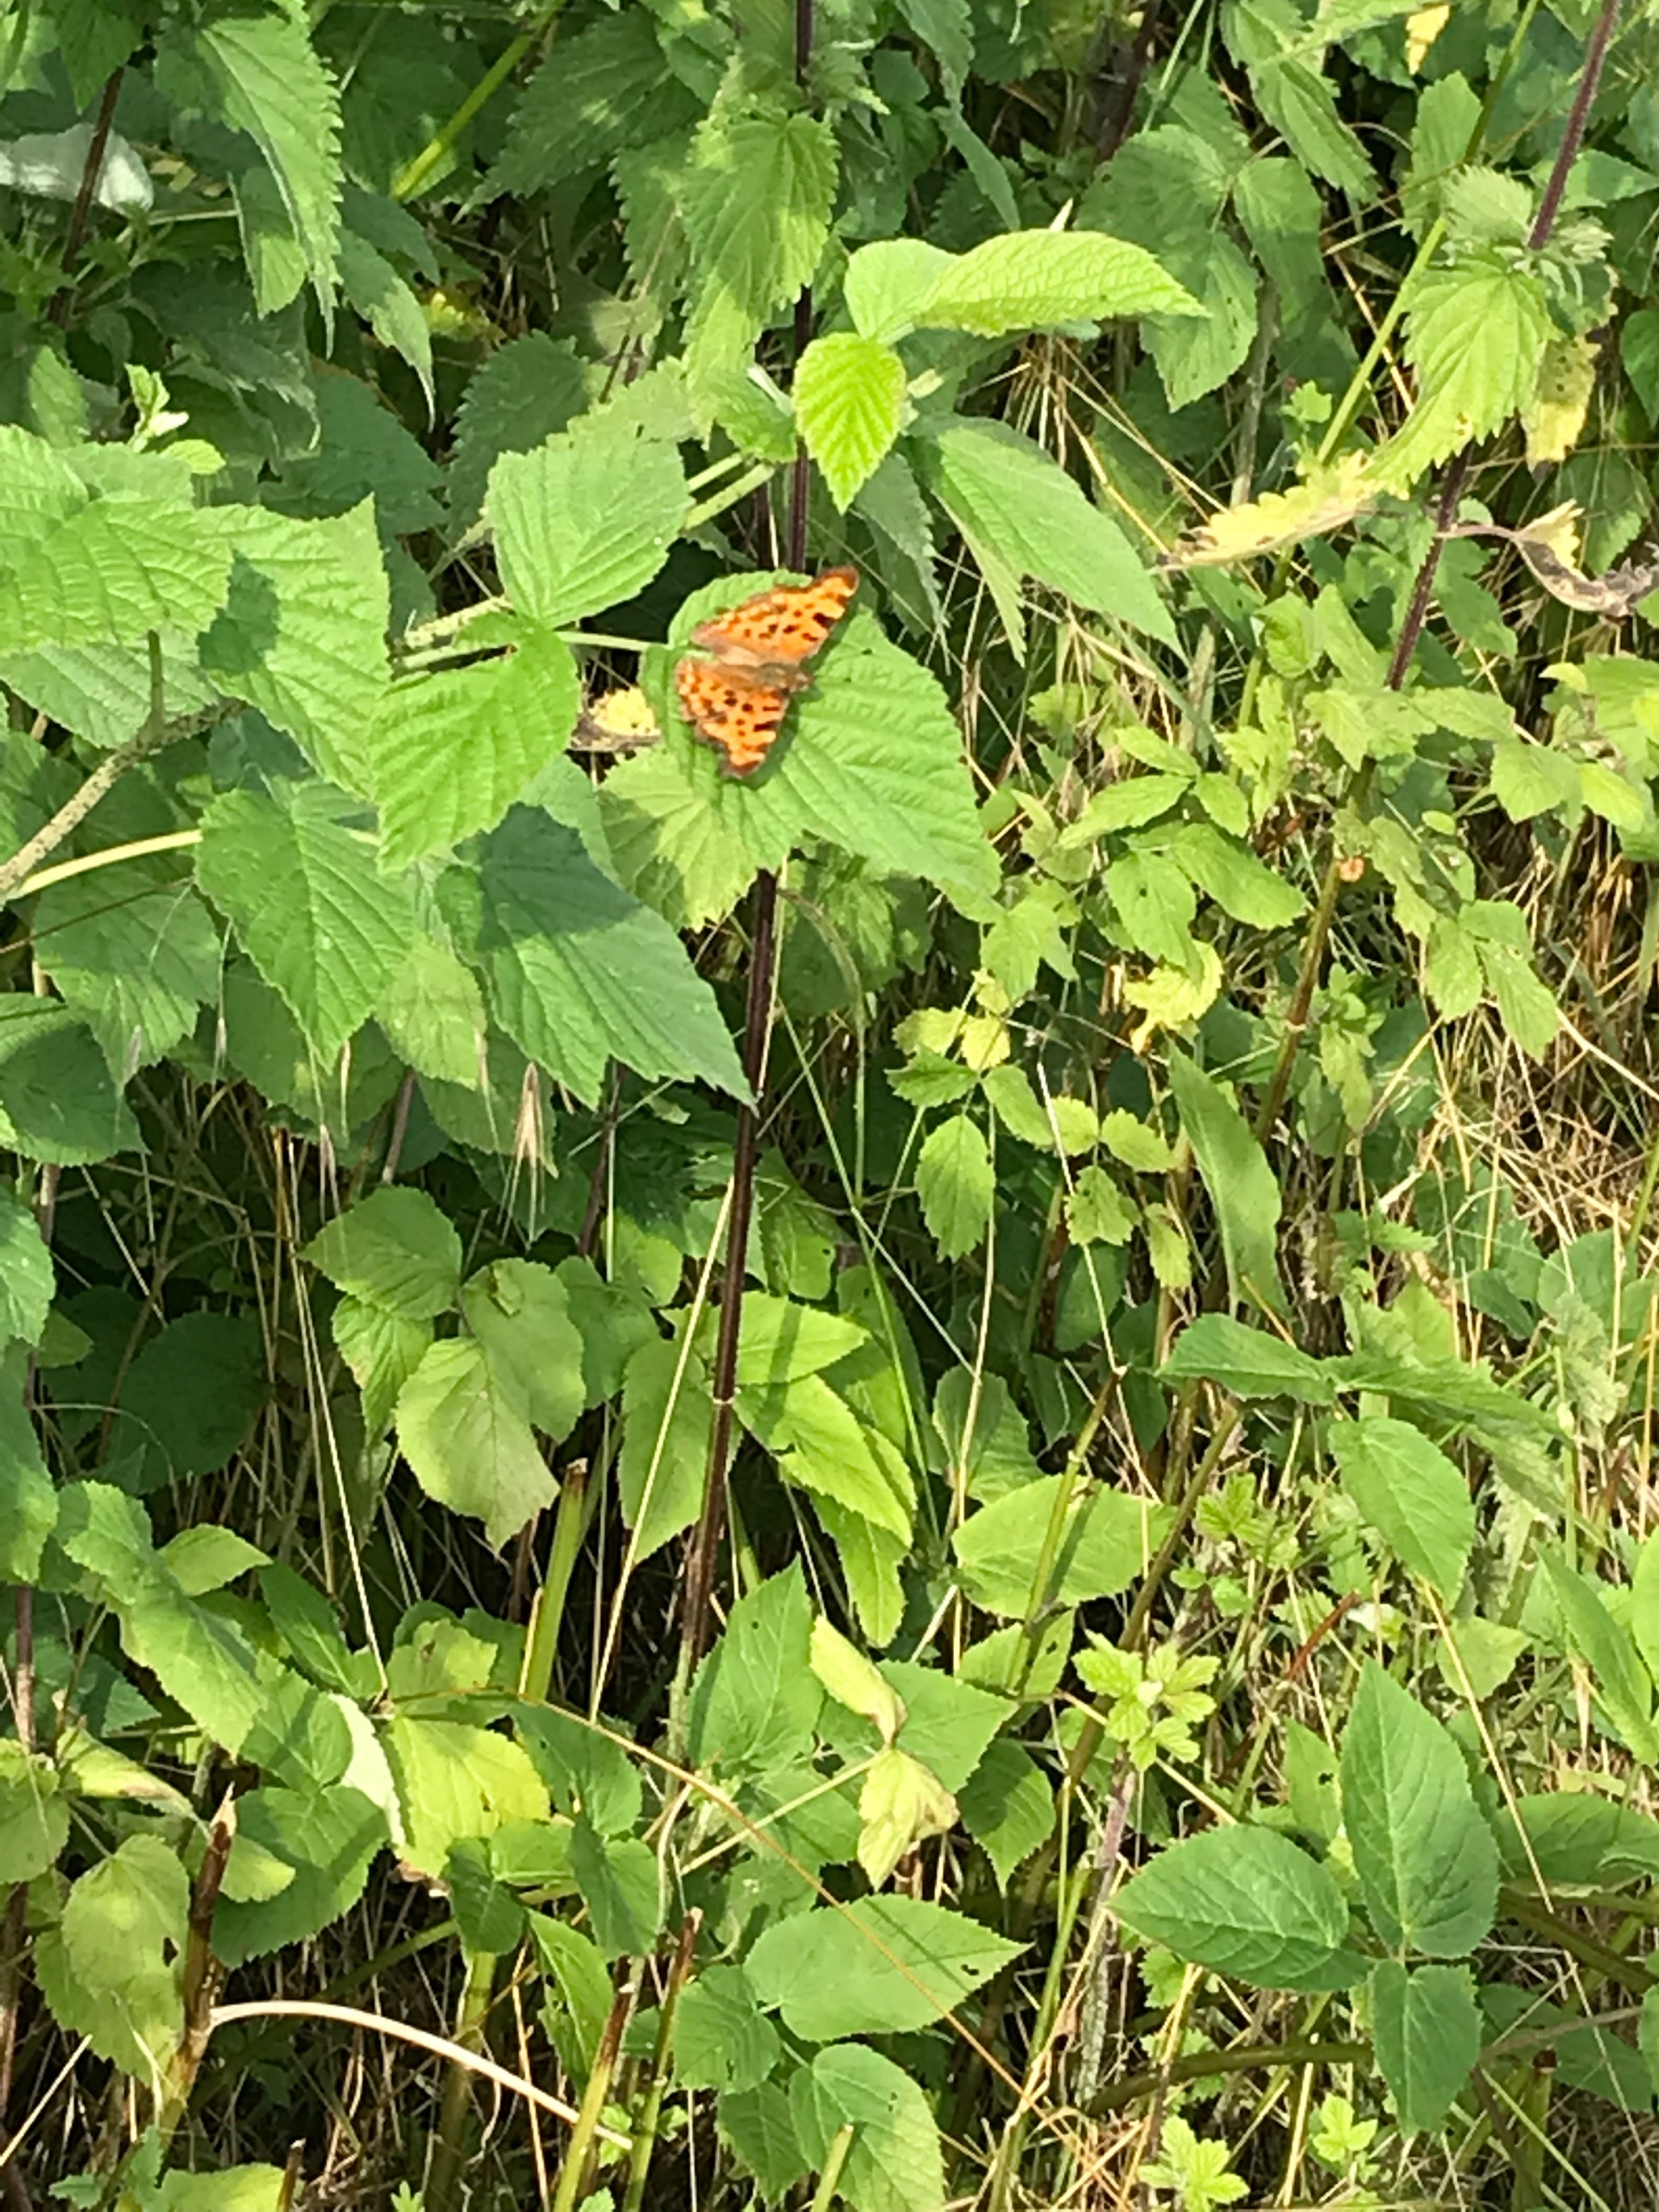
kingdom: Animalia
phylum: Arthropoda
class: Insecta
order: Lepidoptera
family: Nymphalidae
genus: Polygonia
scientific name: Polygonia c-album
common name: Det hvide C
